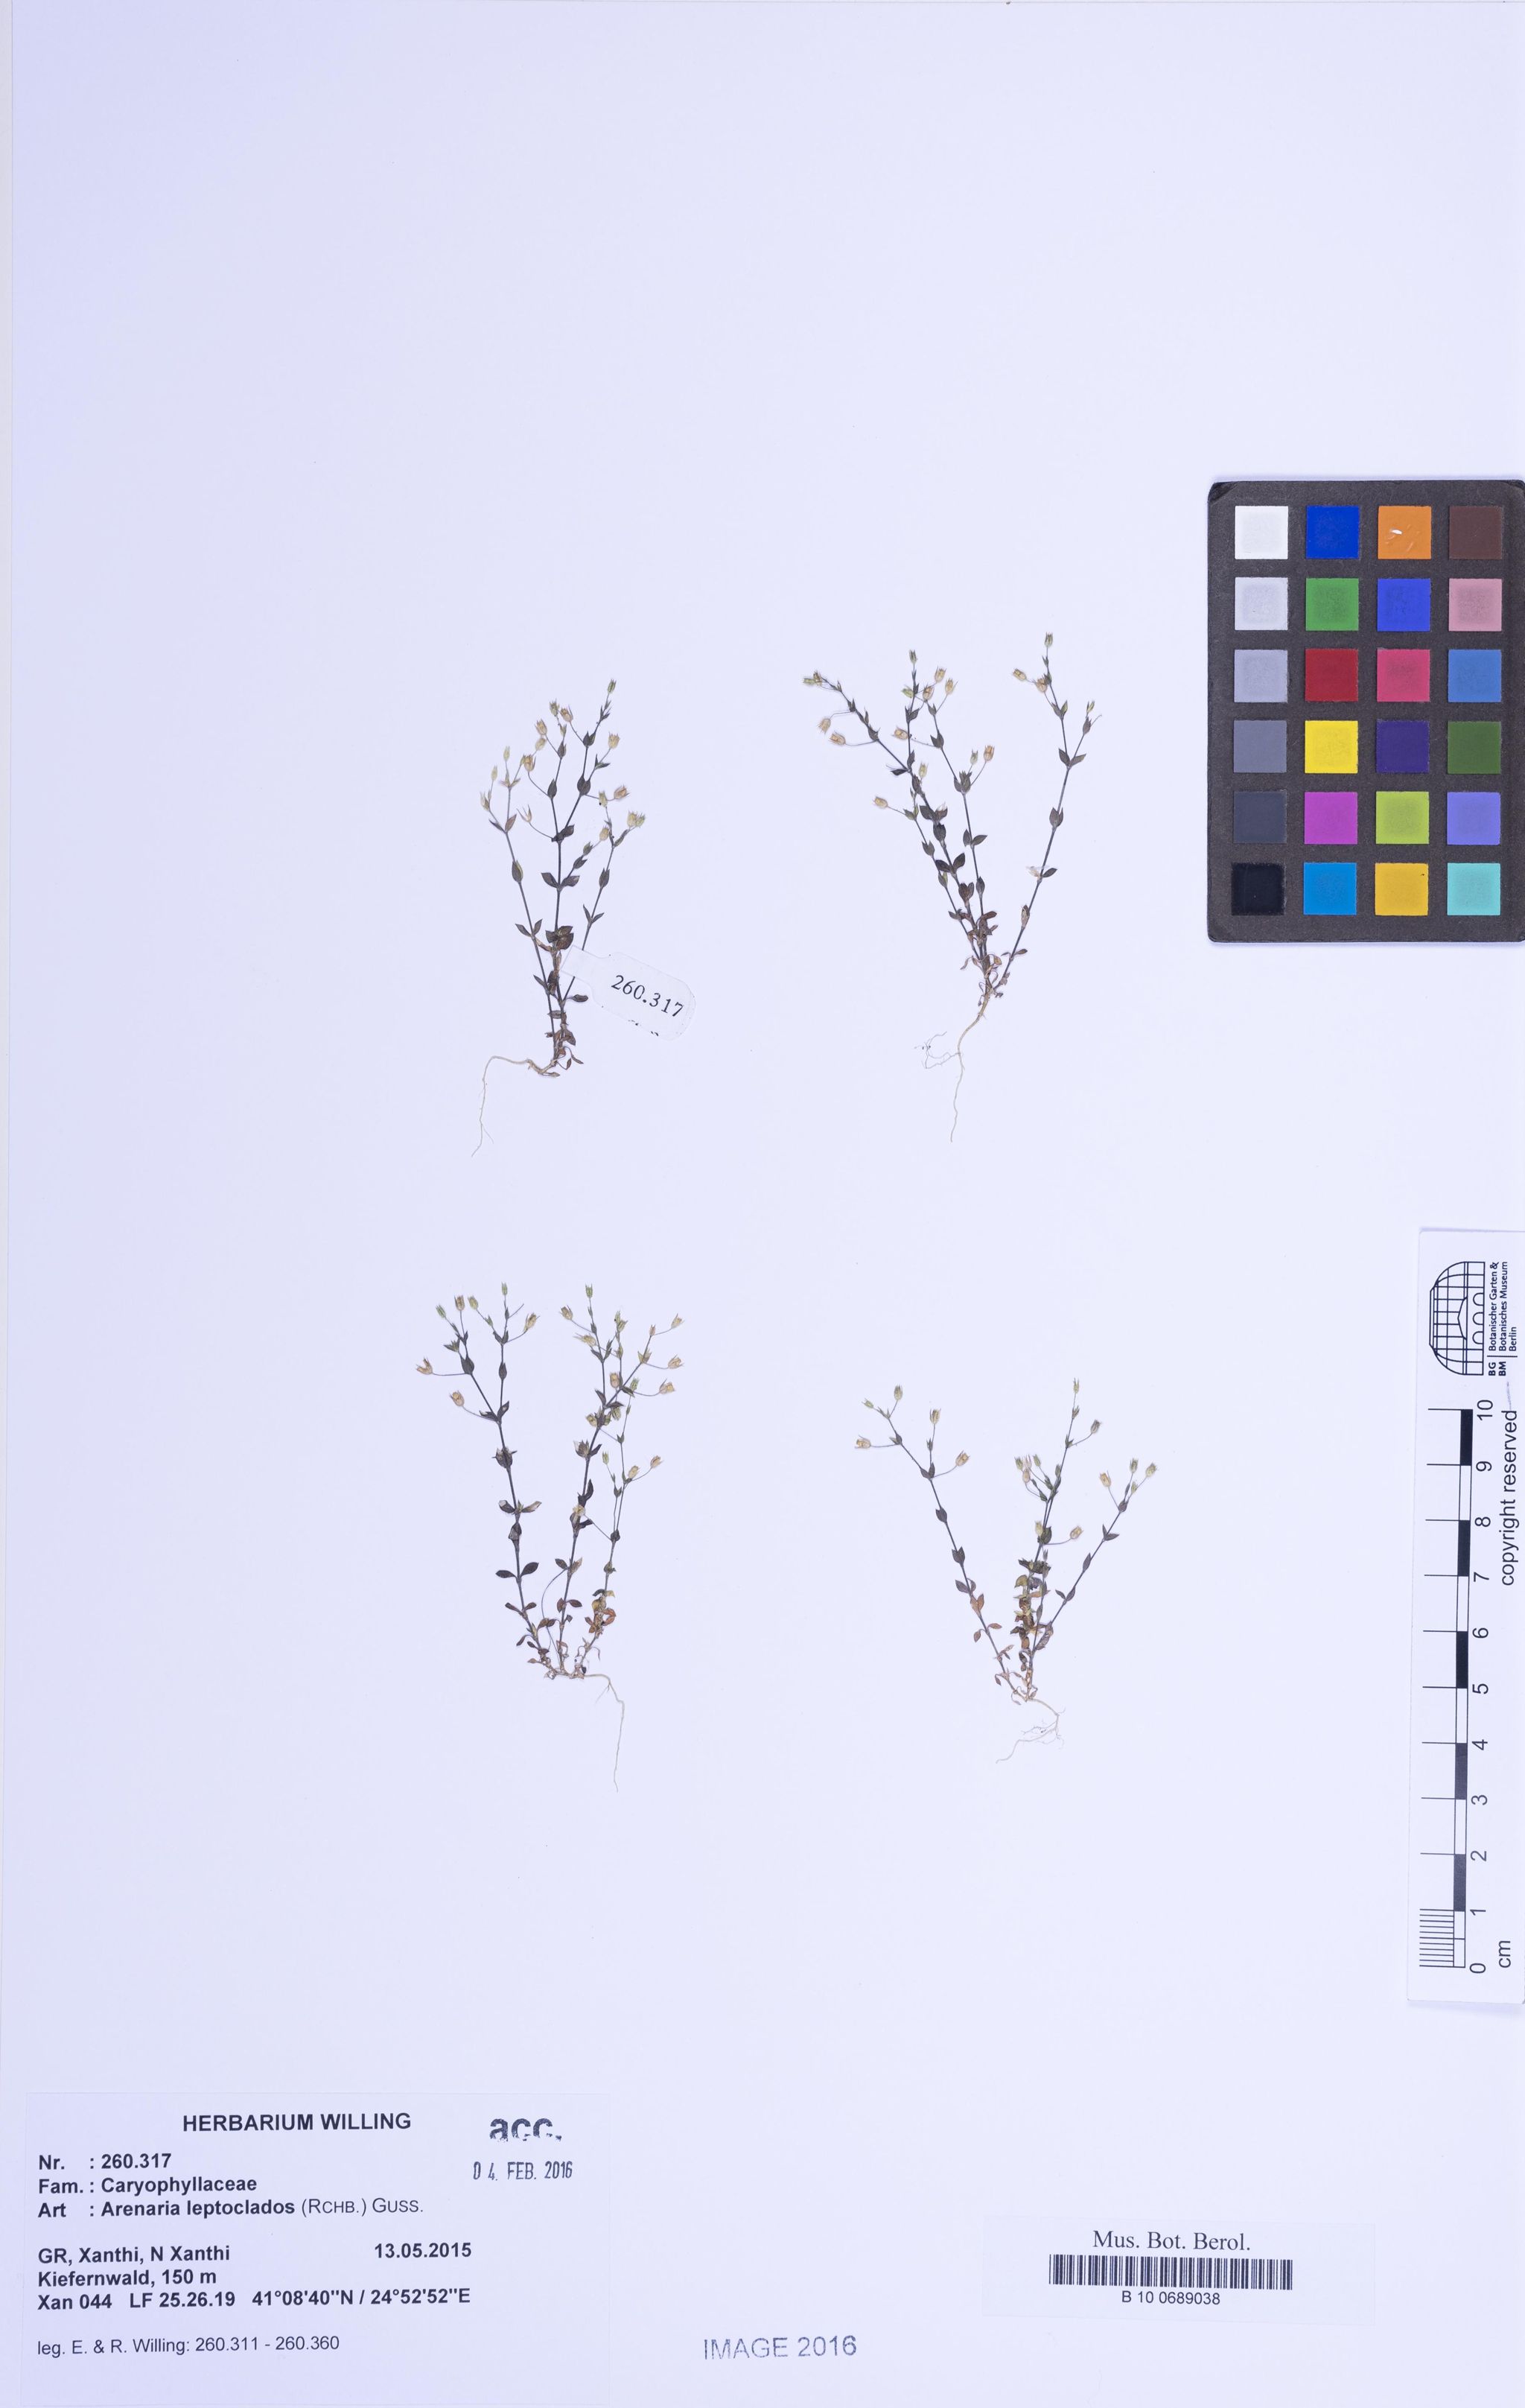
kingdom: Plantae
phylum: Tracheophyta
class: Magnoliopsida
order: Caryophyllales
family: Caryophyllaceae
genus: Arenaria
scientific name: Arenaria leptoclados
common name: Thyme-leaved sandwort
